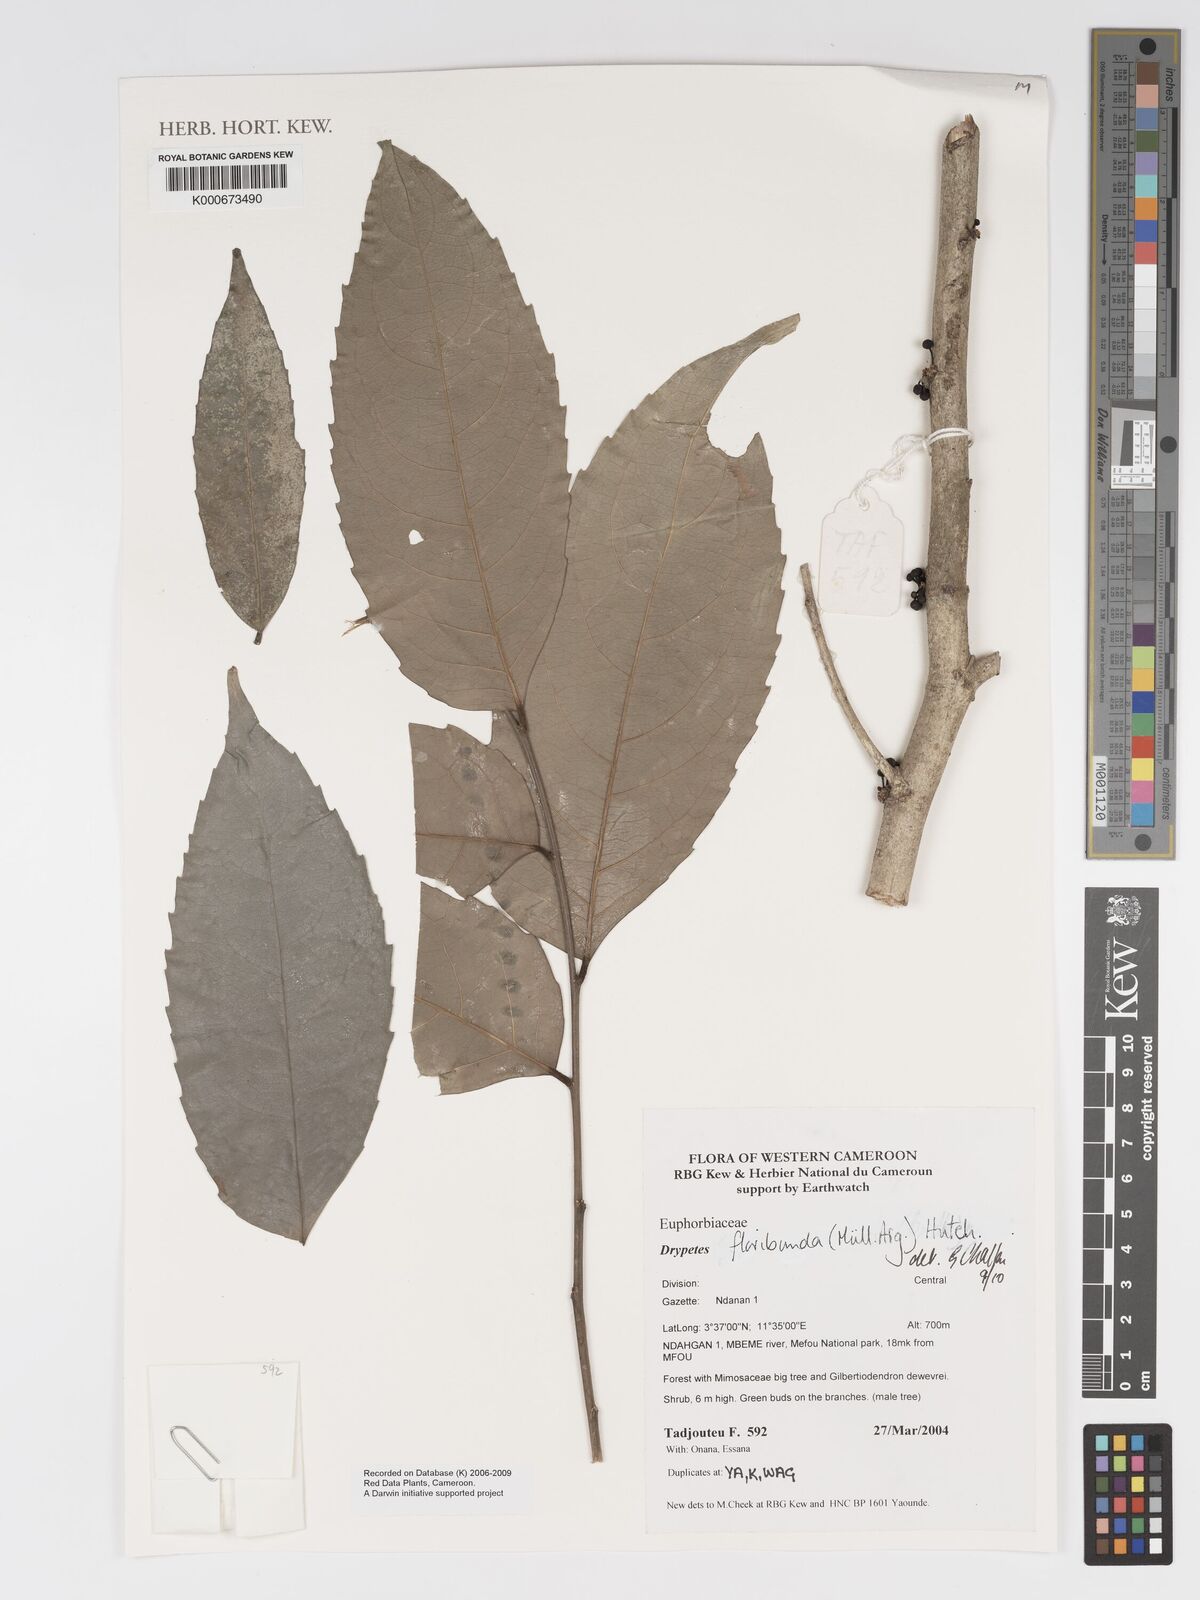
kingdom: Plantae
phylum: Tracheophyta
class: Magnoliopsida
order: Malpighiales
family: Putranjivaceae
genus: Drypetes
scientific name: Drypetes
